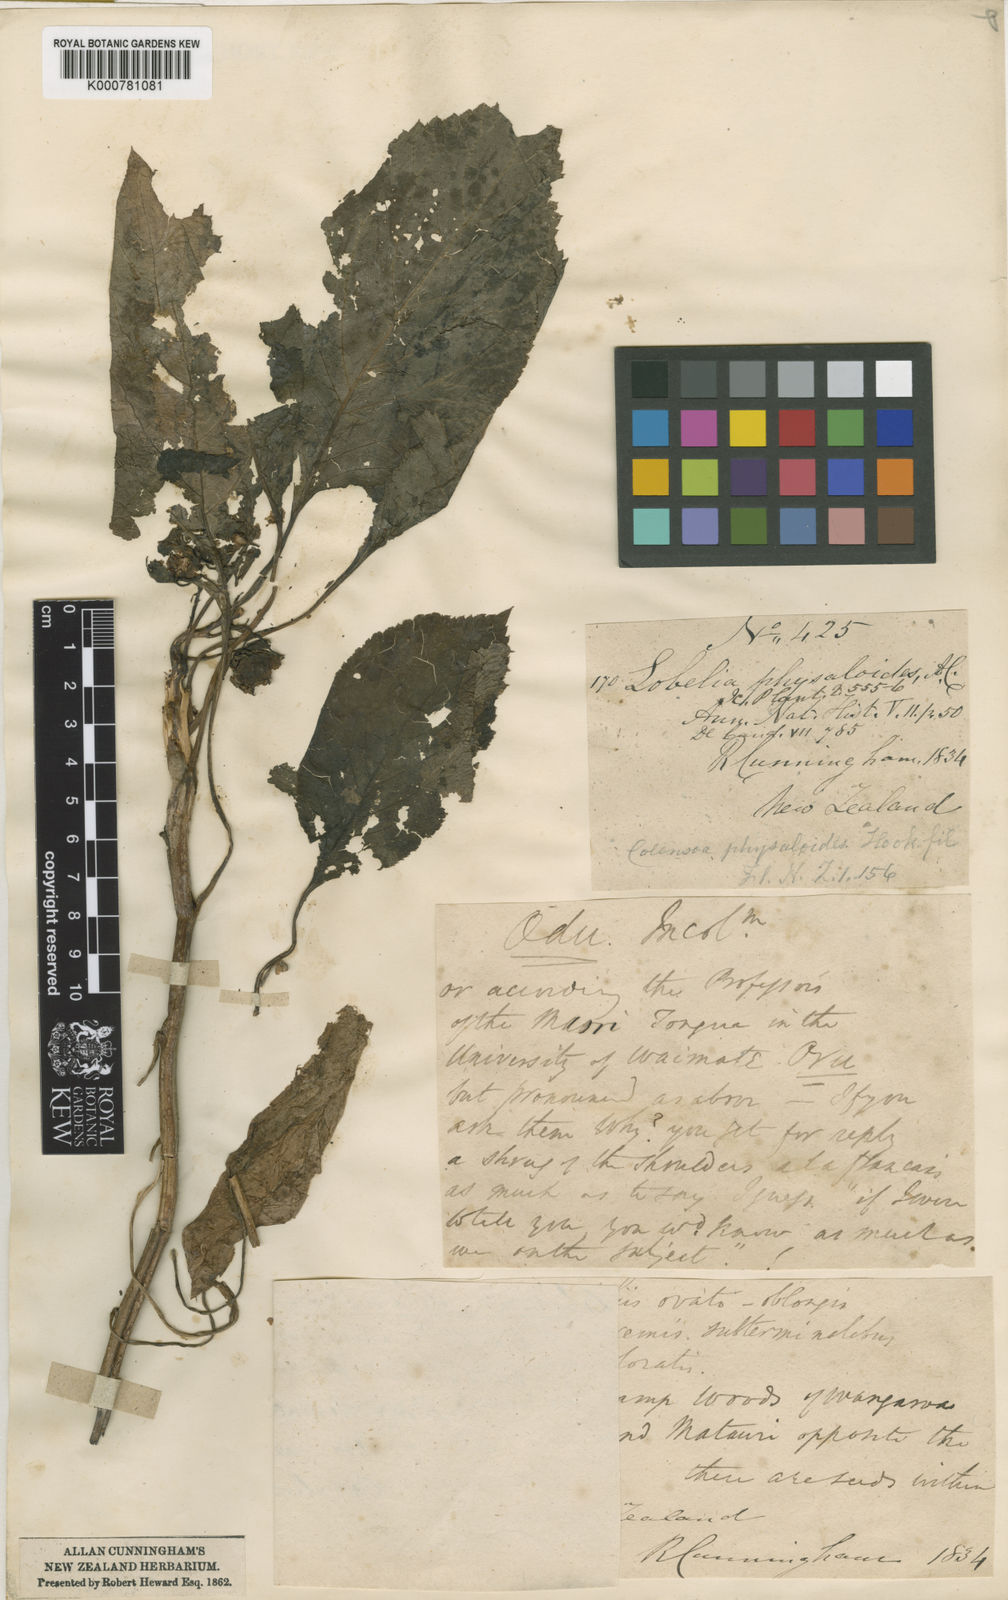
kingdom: Plantae
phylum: Tracheophyta
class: Magnoliopsida
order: Asterales
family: Campanulaceae
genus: Lobelia
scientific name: Lobelia physaloides
